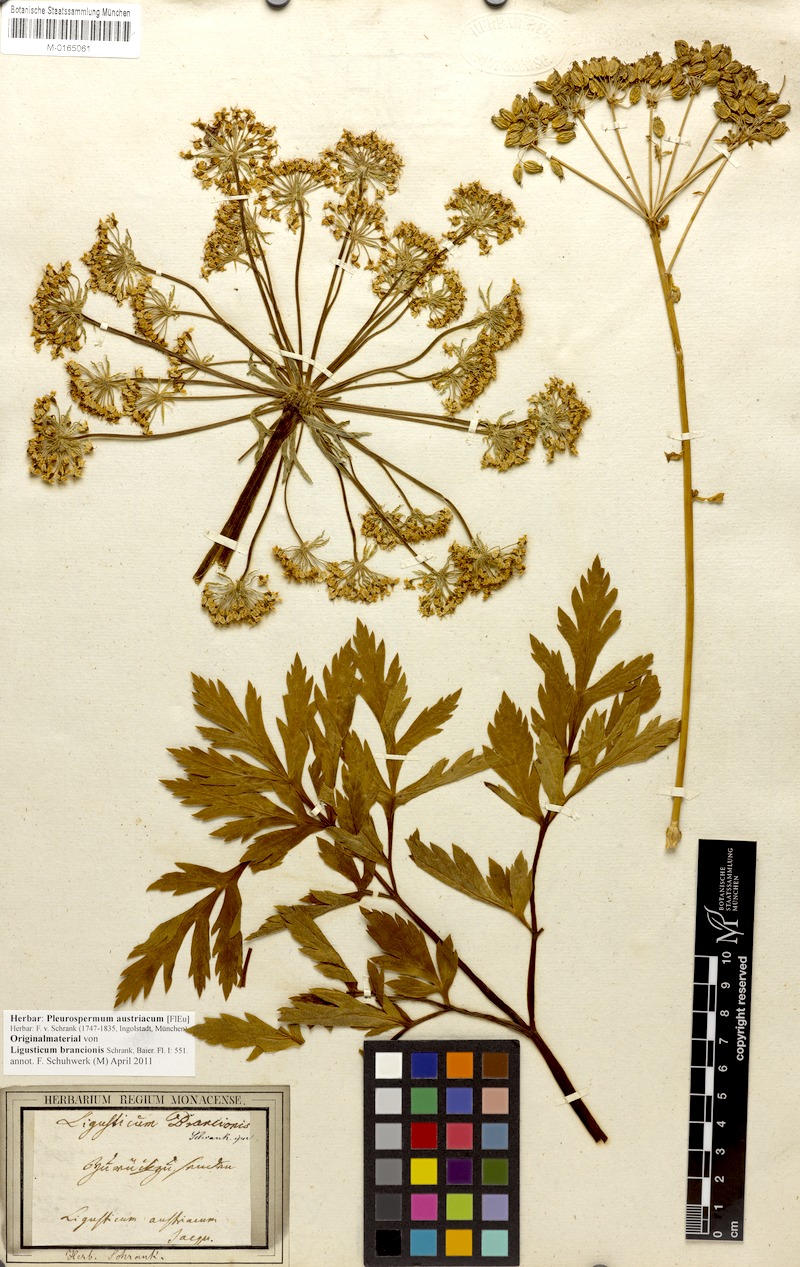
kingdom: Plantae
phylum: Tracheophyta
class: Magnoliopsida
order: Apiales
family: Apiaceae
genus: Pleurospermum
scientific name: Pleurospermum austriacum
